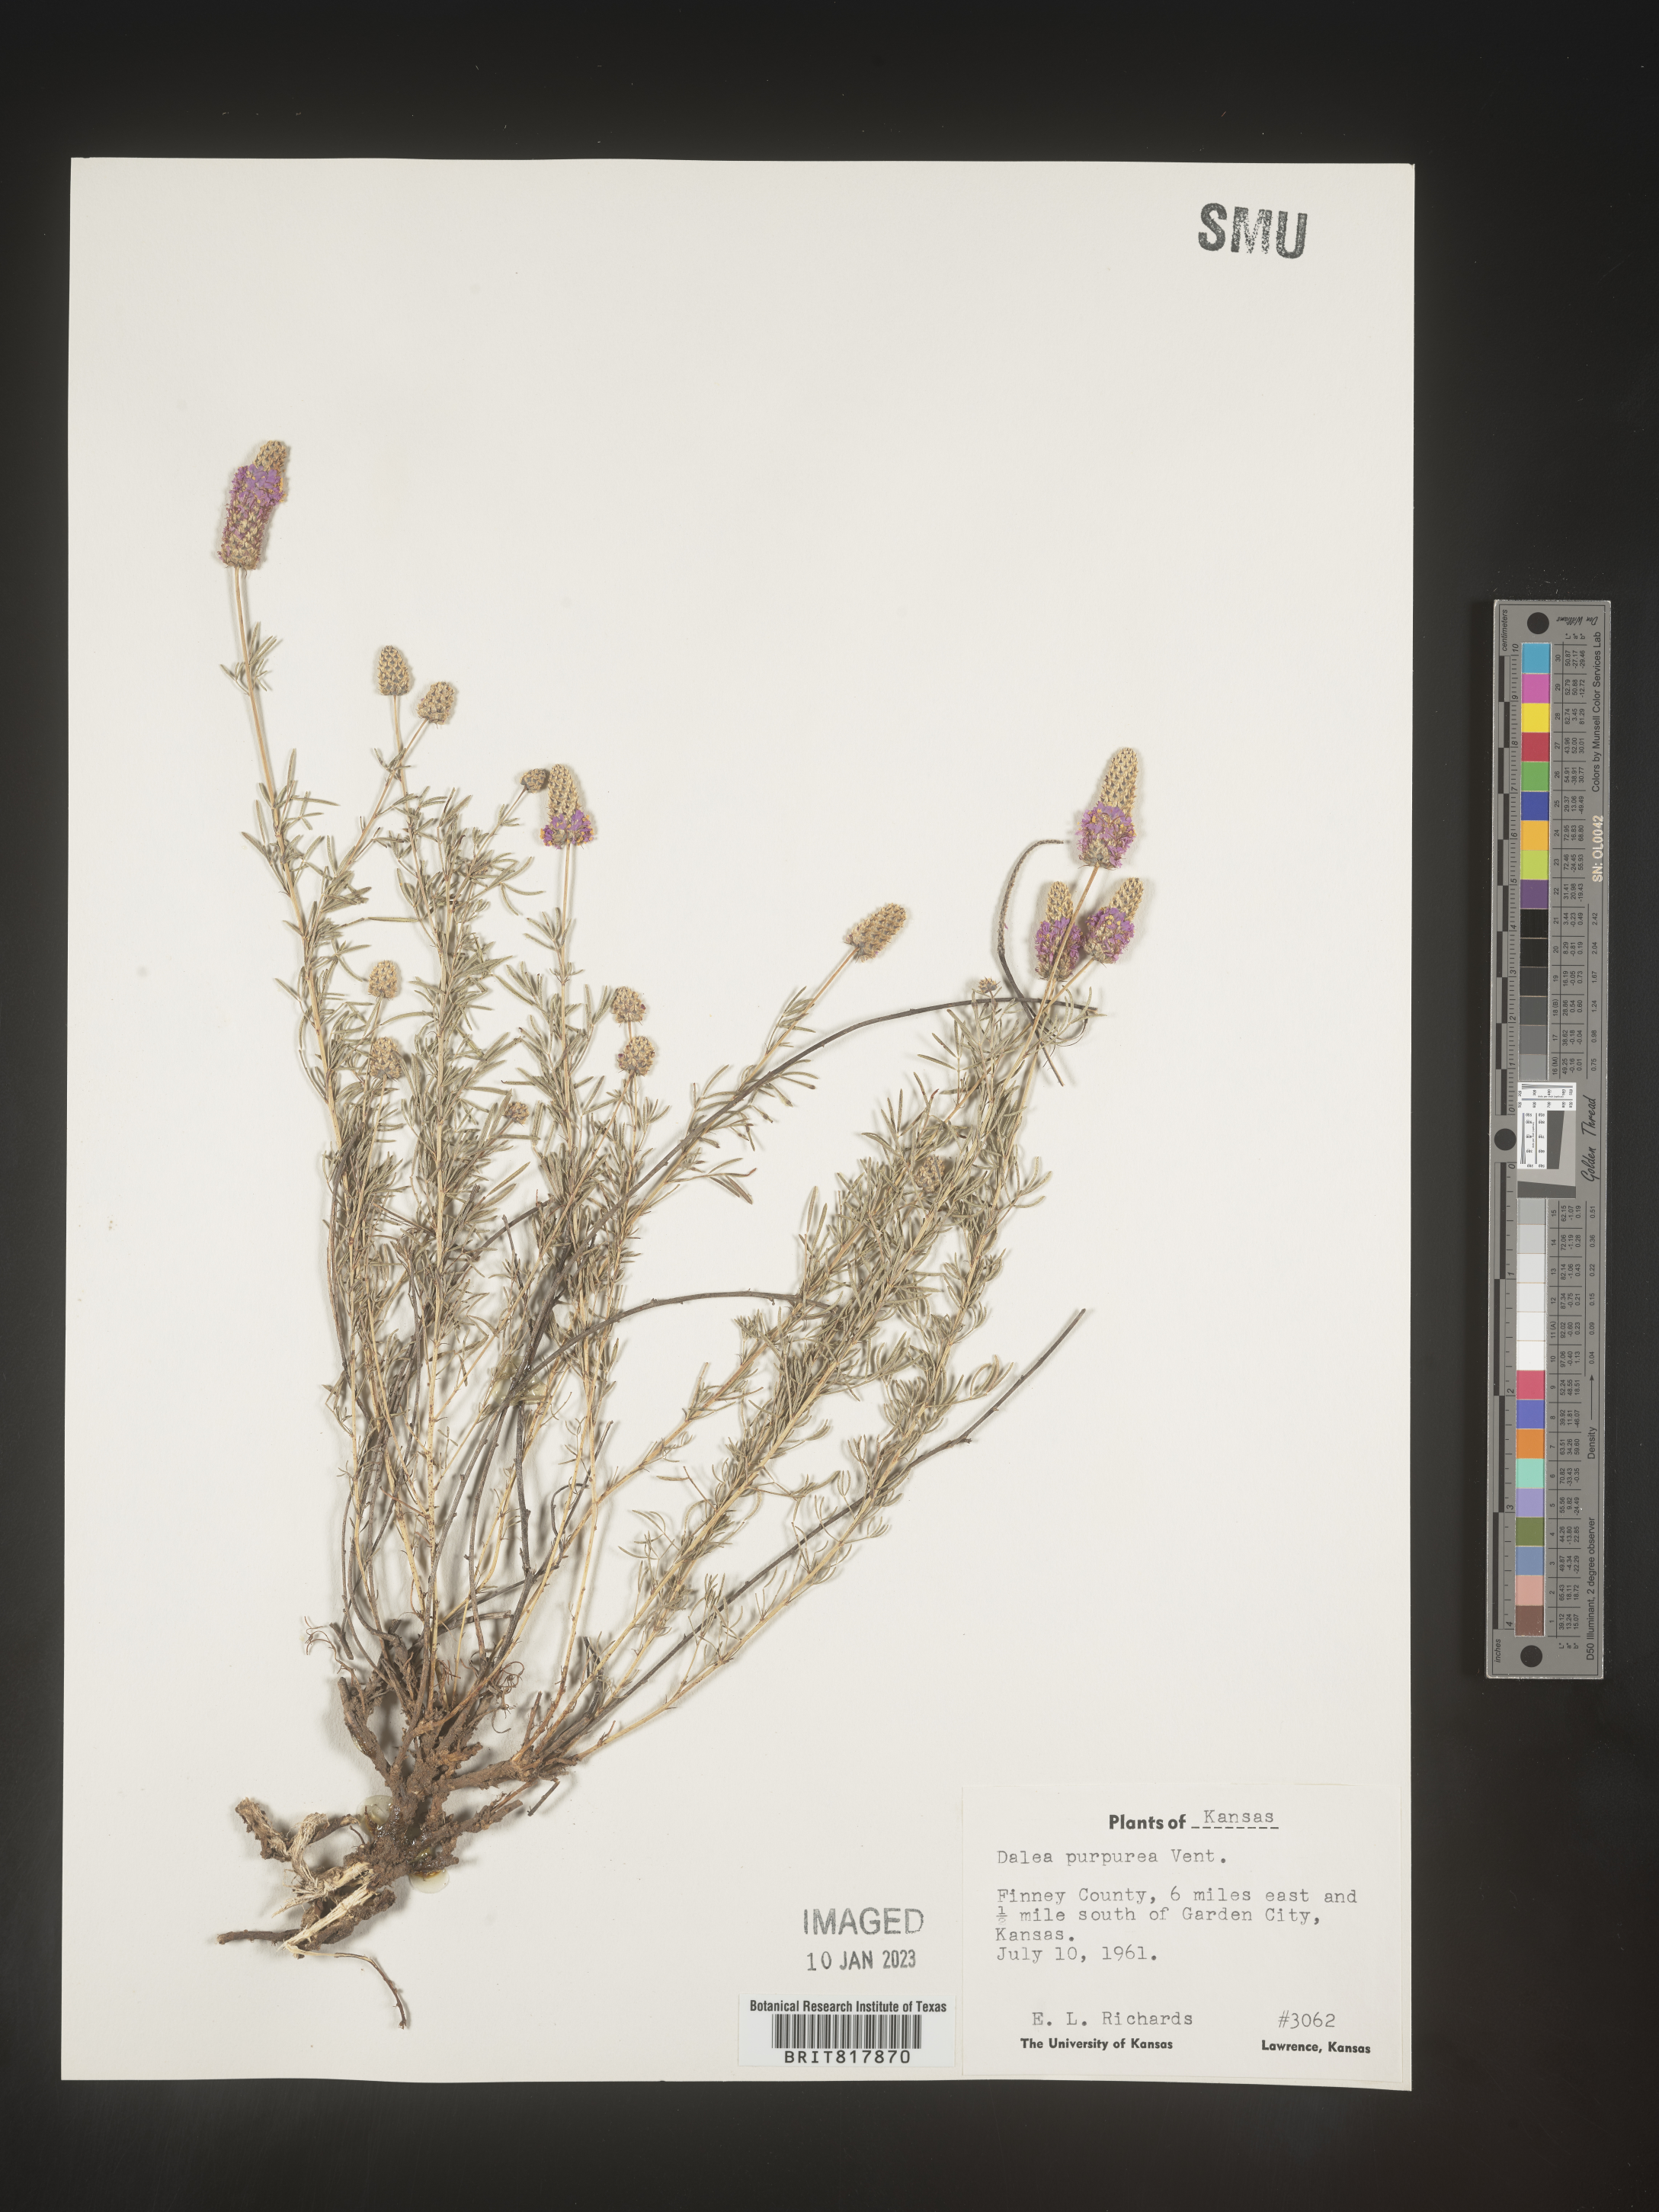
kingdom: Plantae
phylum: Tracheophyta
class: Magnoliopsida
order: Fabales
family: Fabaceae
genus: Dalea
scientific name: Dalea purpurea
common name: Purple prairie-clover
